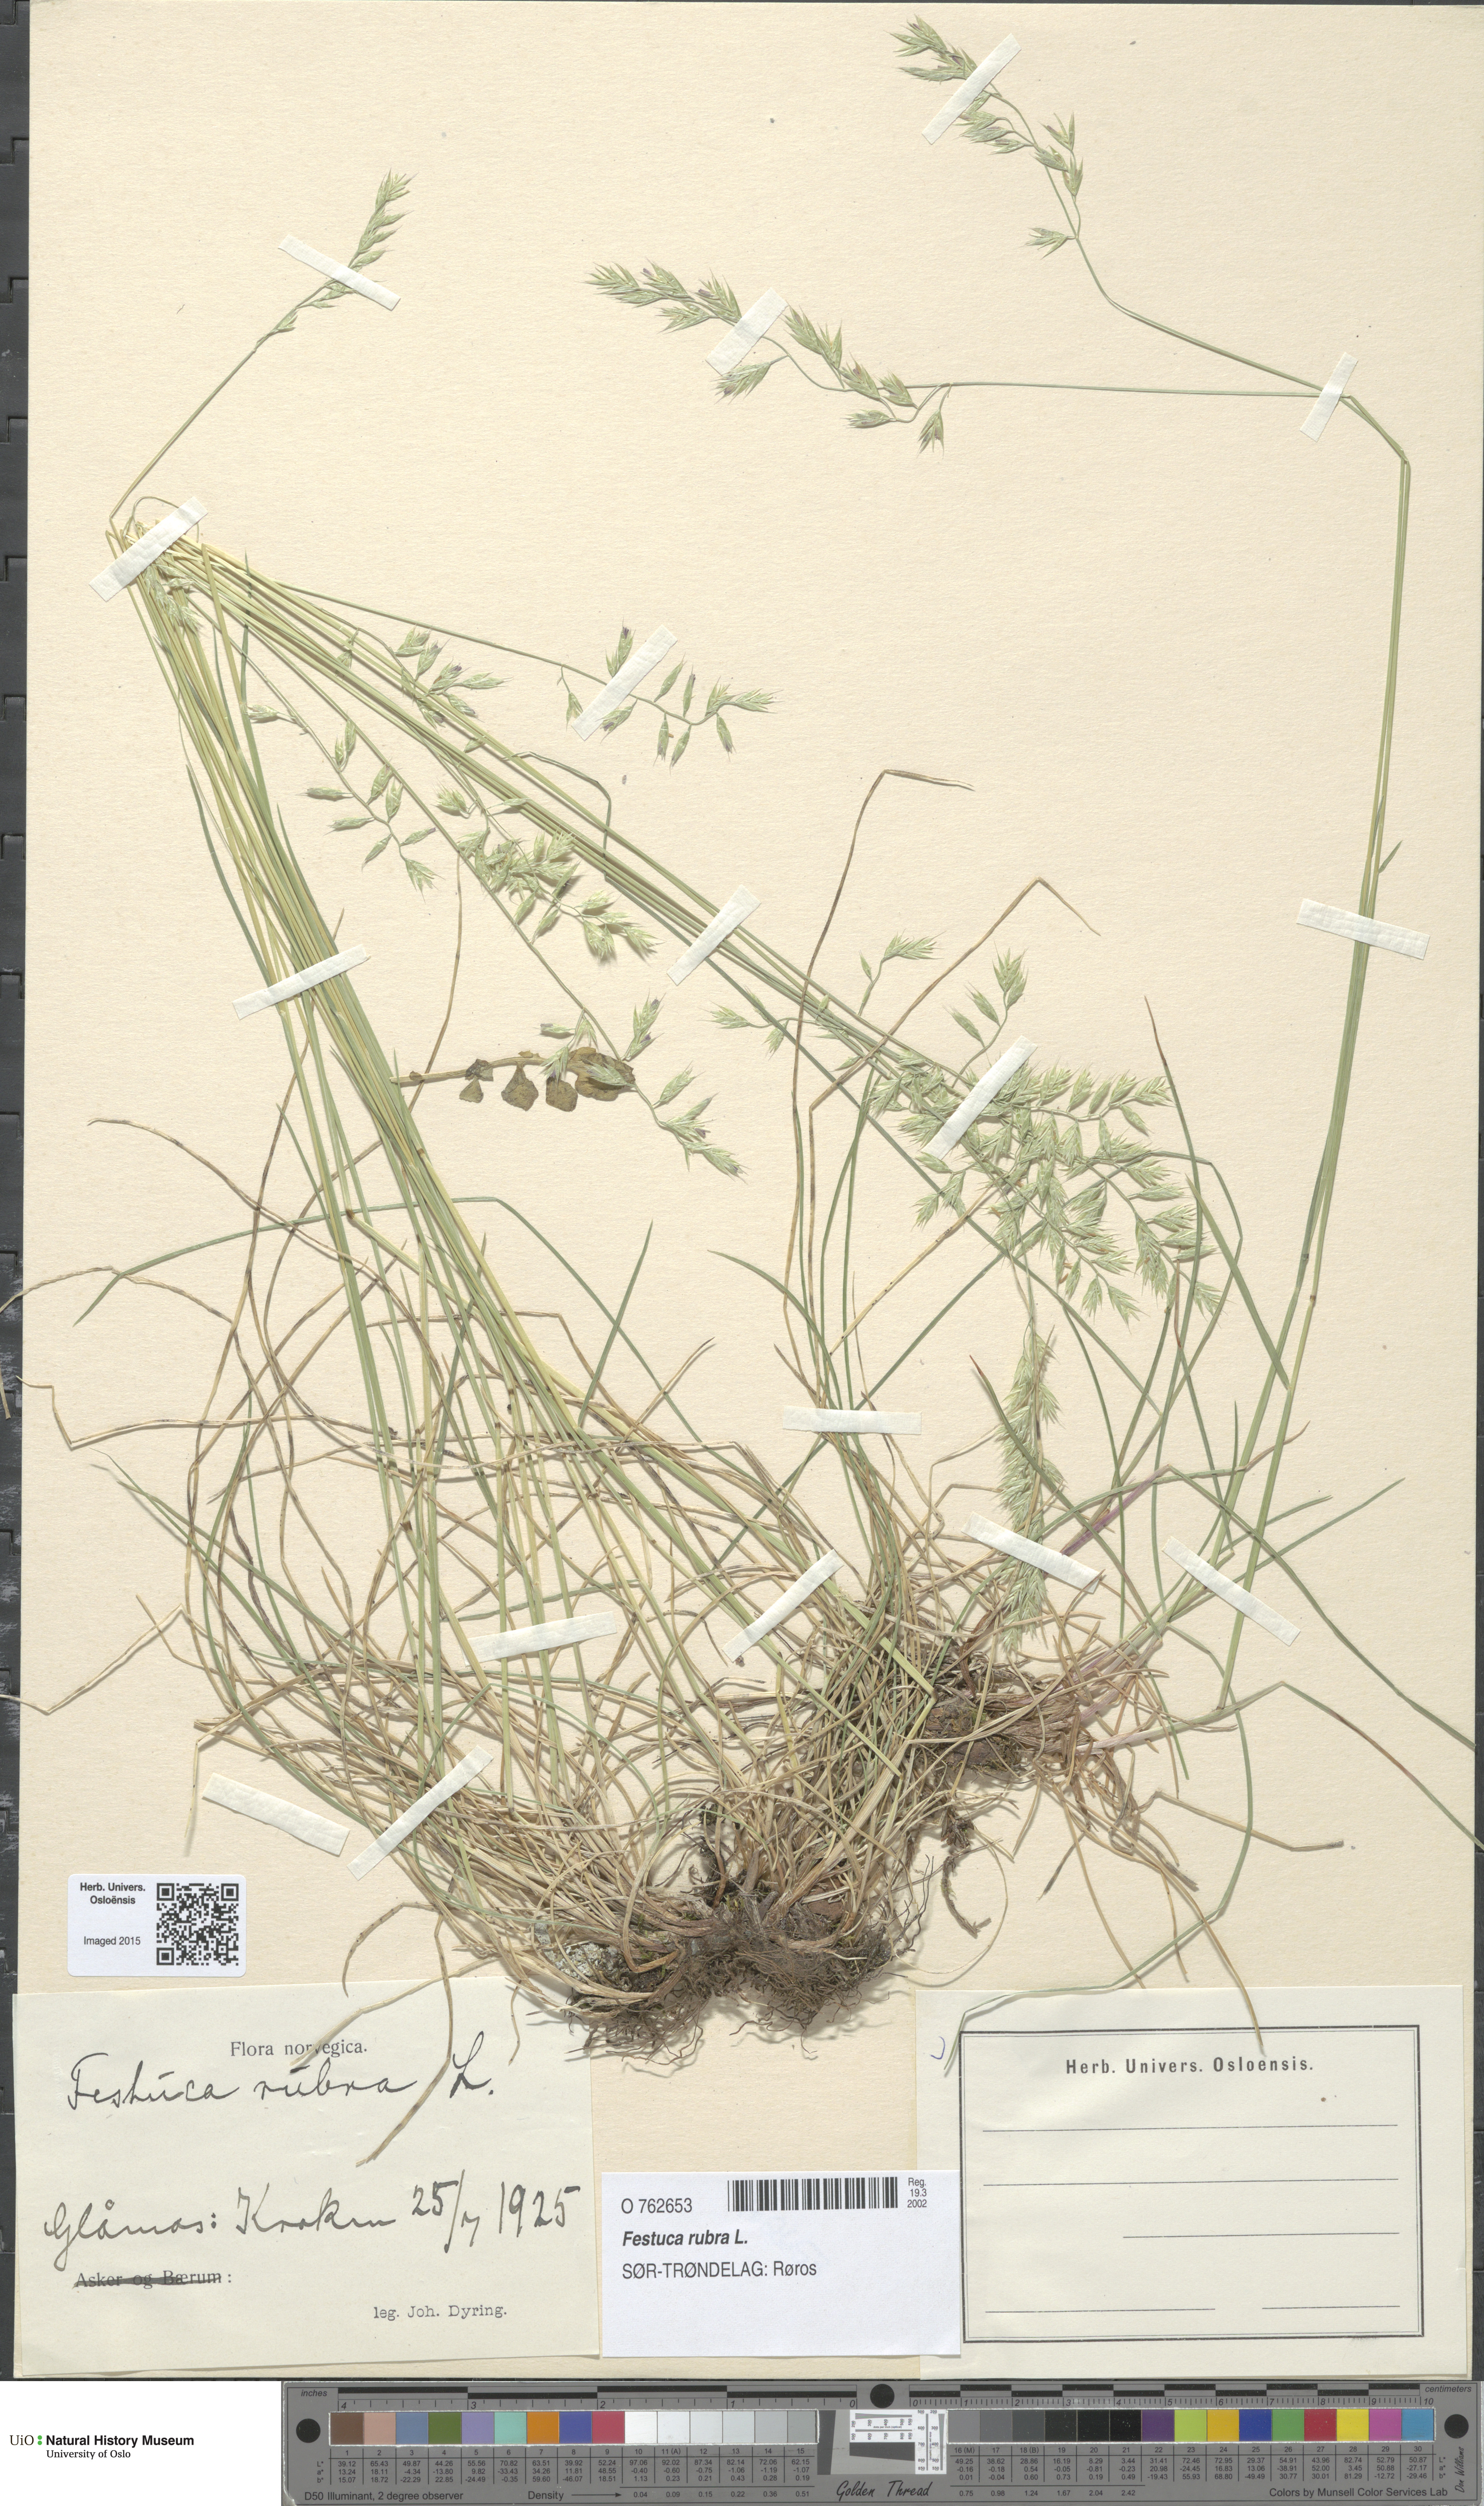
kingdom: Plantae
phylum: Tracheophyta
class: Liliopsida
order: Poales
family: Poaceae
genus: Festuca
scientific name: Festuca rubra
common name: Red fescue
